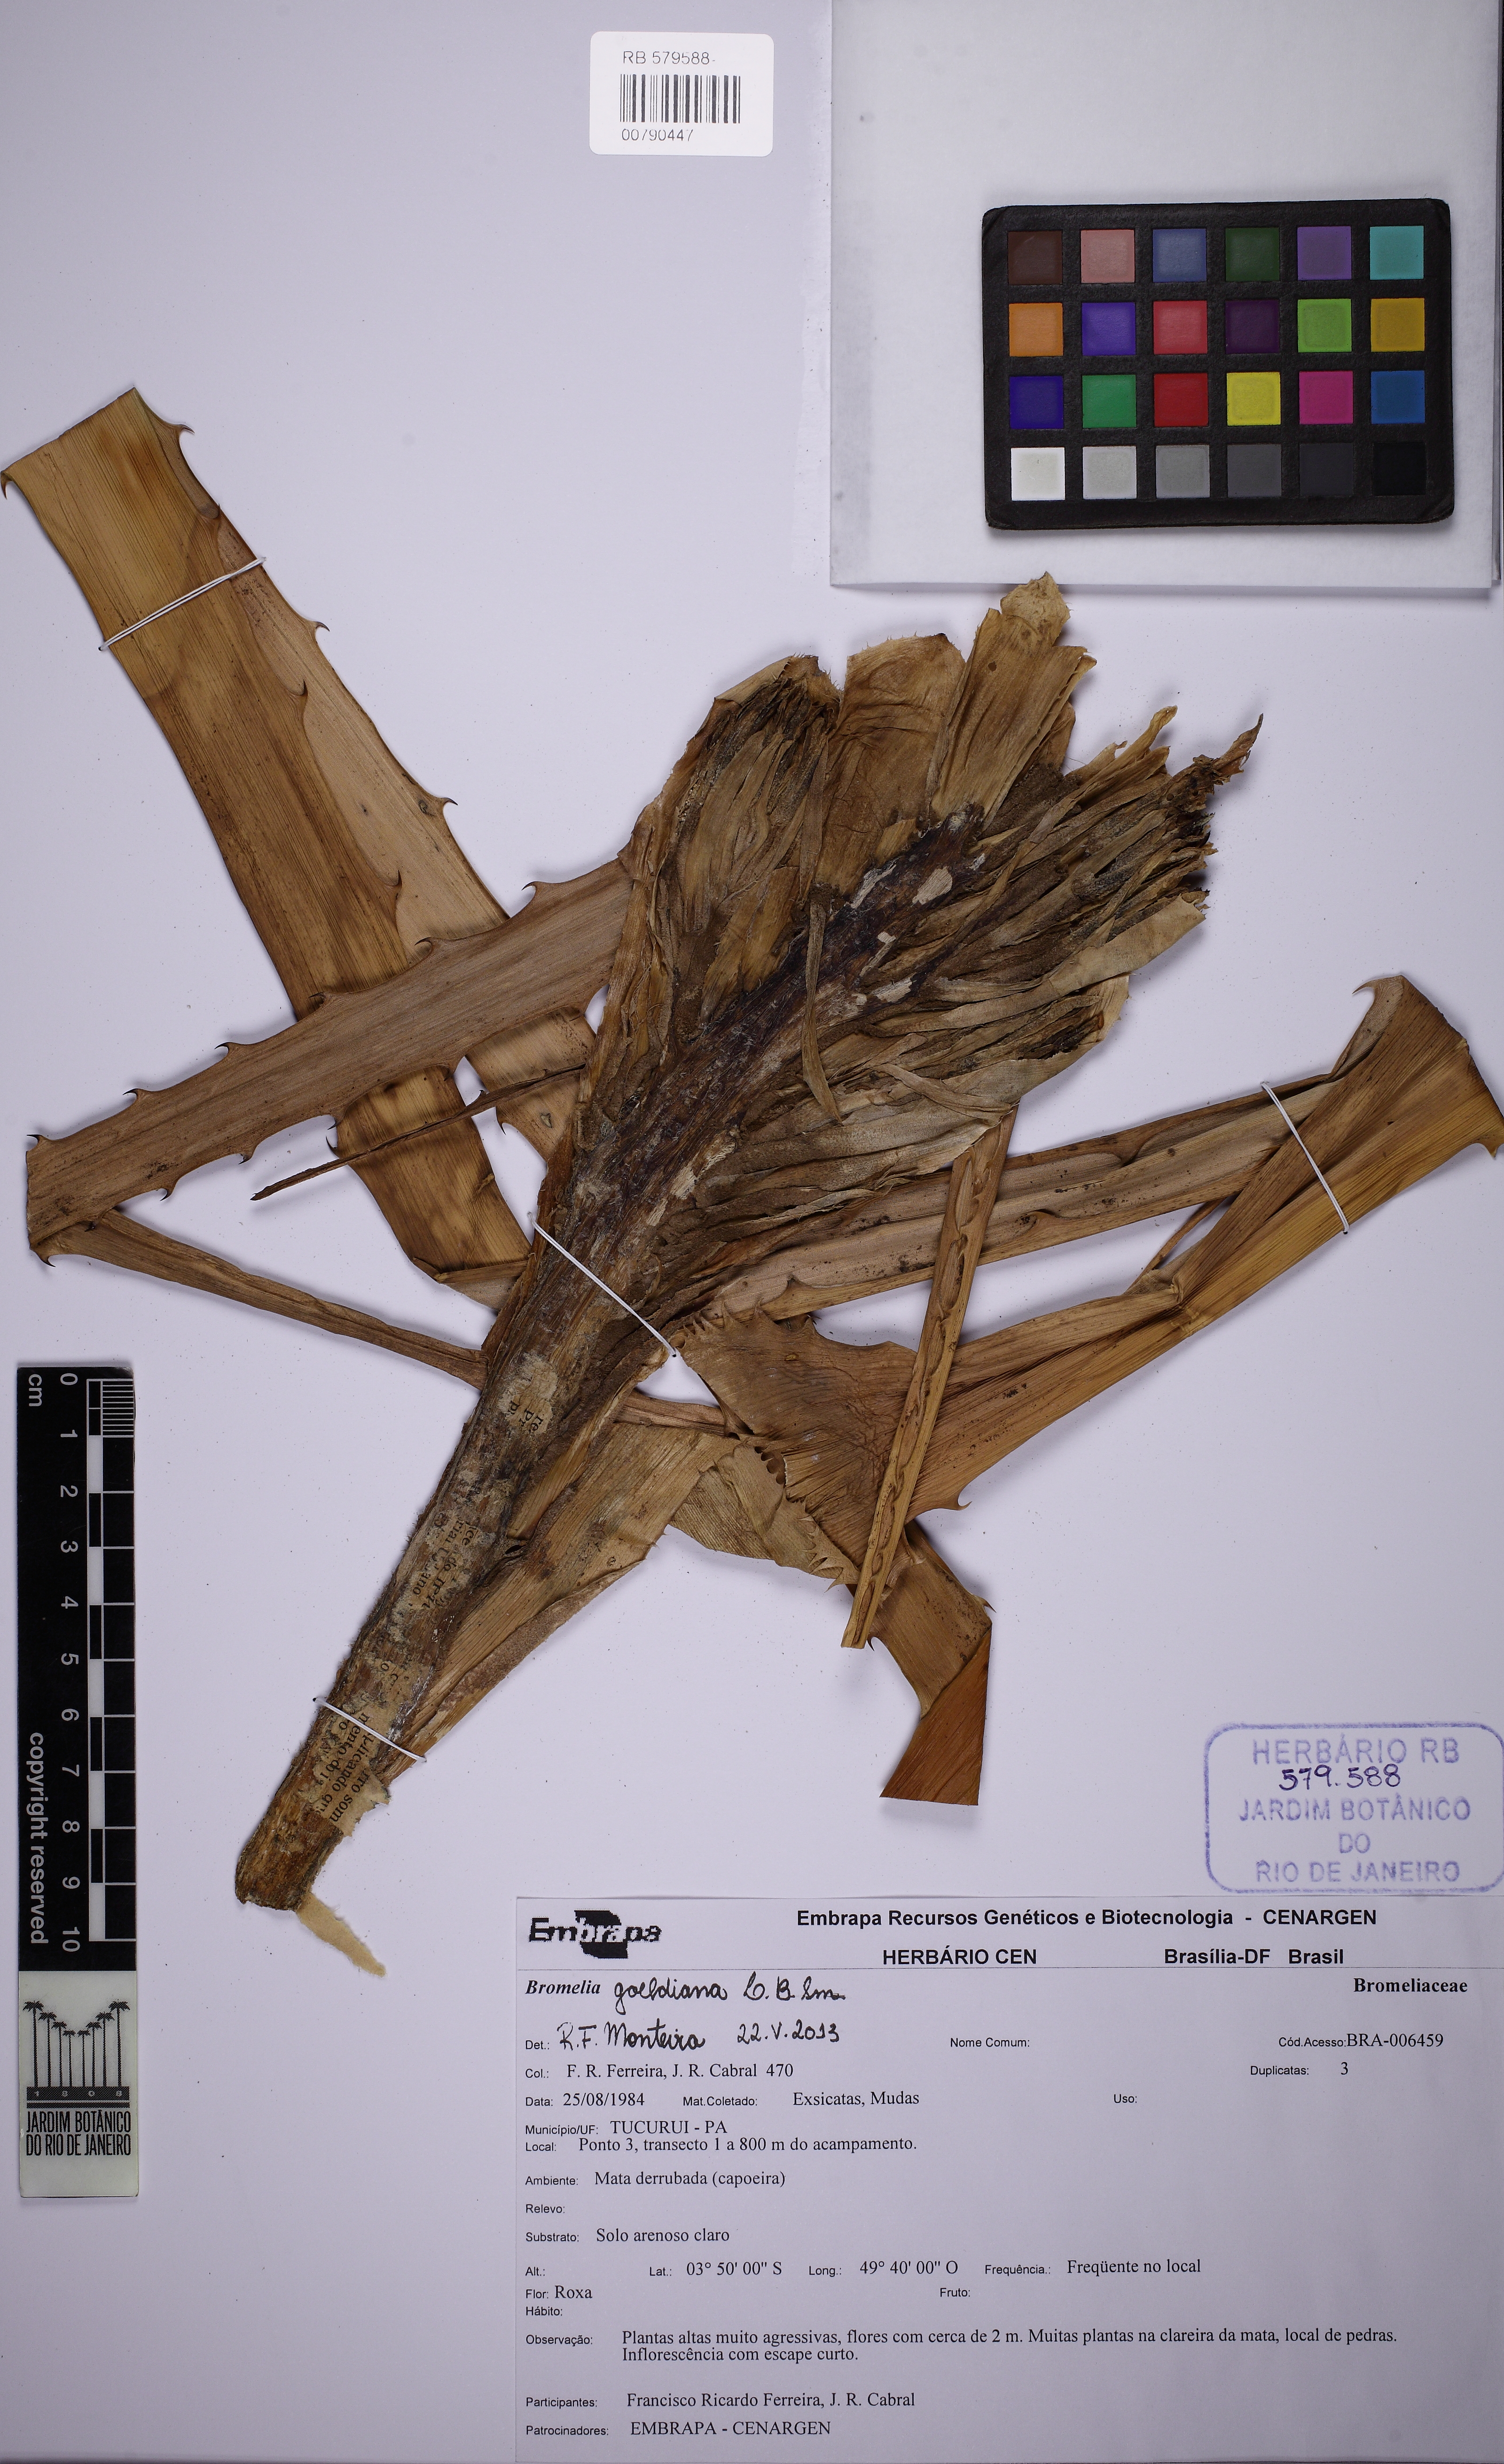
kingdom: Plantae
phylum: Tracheophyta
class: Liliopsida
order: Poales
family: Bromeliaceae
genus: Bromelia
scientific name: Bromelia goeldiana
